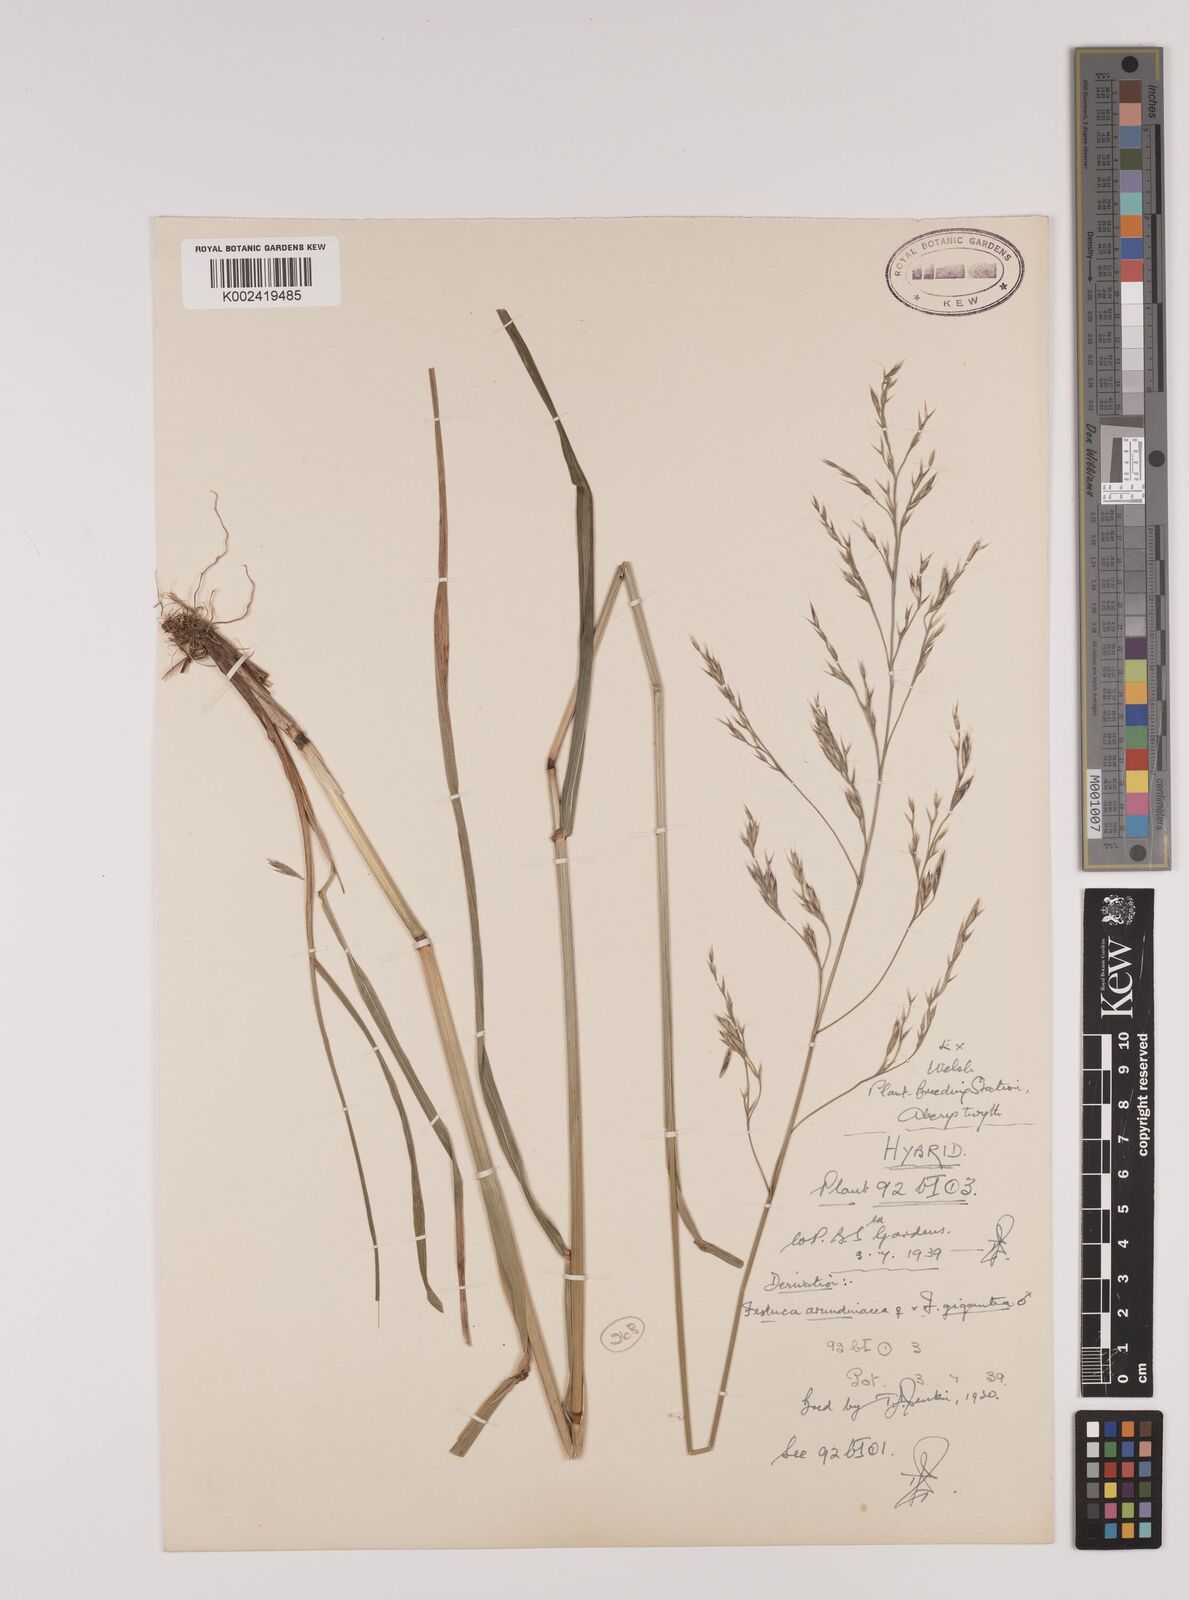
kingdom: Plantae
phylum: Tracheophyta
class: Liliopsida
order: Poales
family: Poaceae
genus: Lolium
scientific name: Lolium giganteum
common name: Giant fescue
